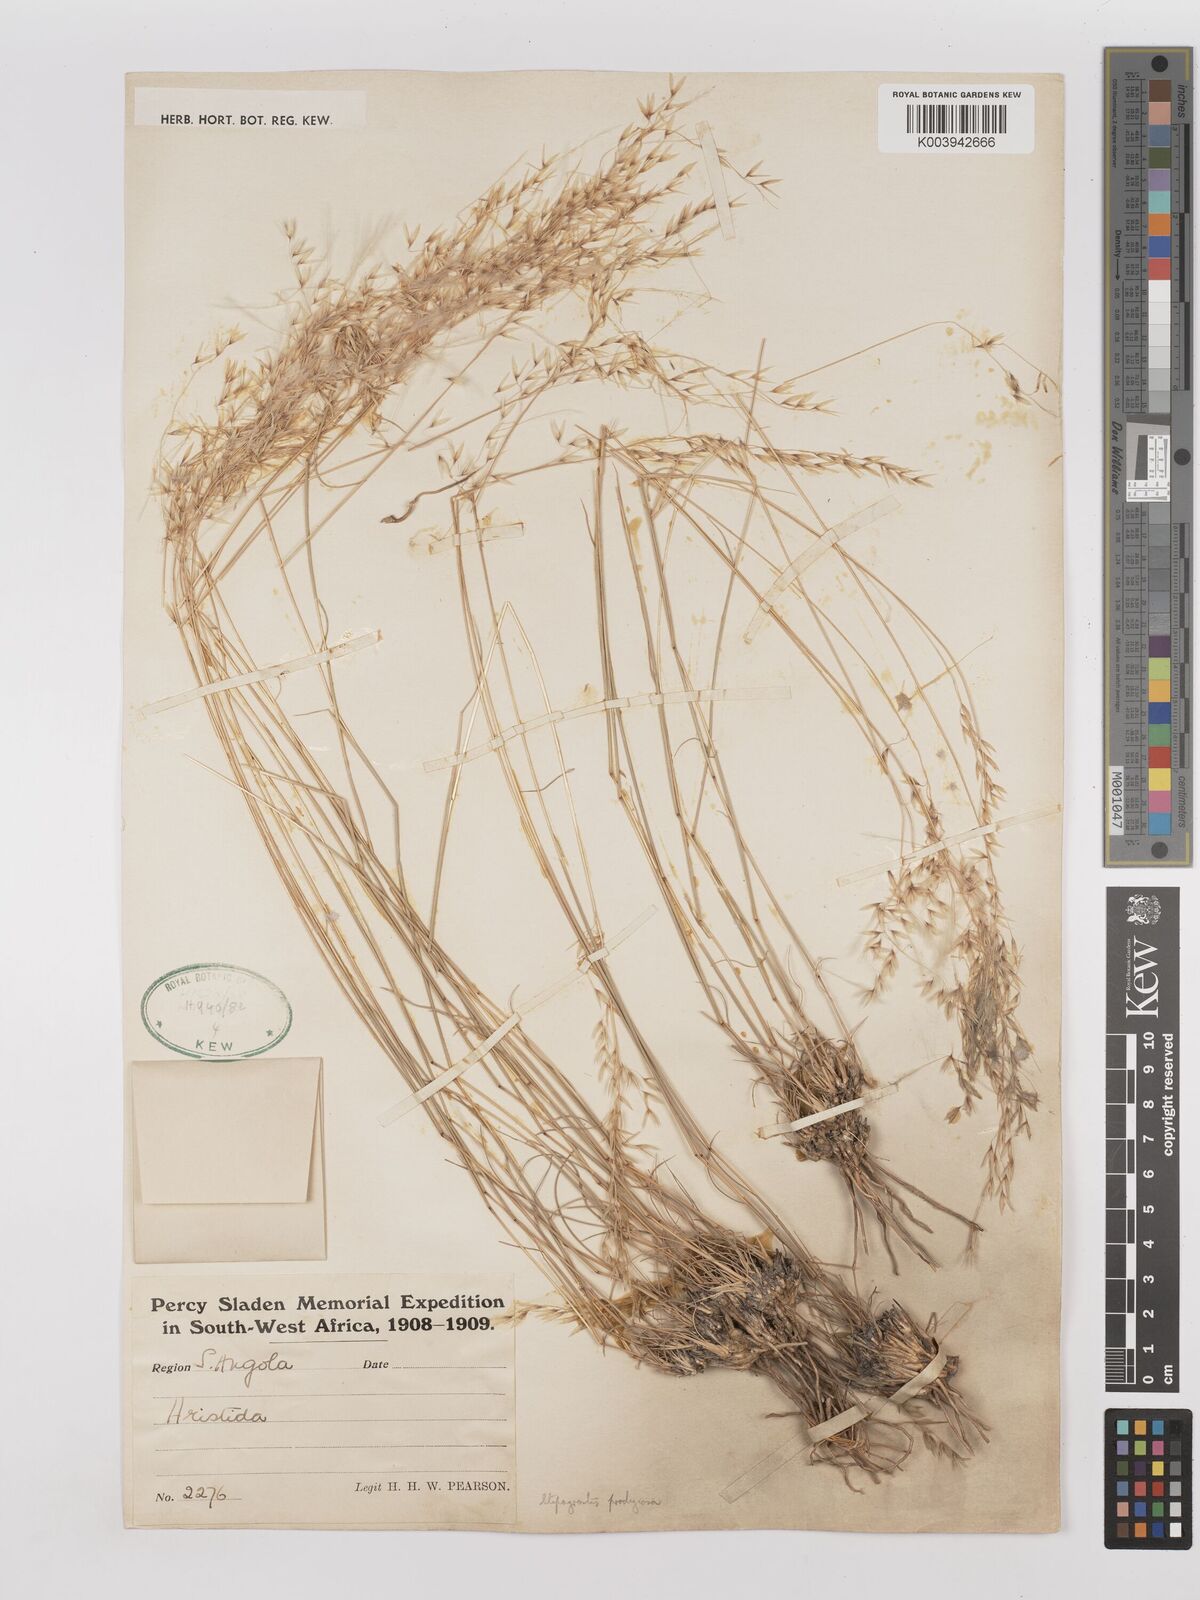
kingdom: Plantae
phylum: Tracheophyta
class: Liliopsida
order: Poales
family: Poaceae
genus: Stipagrostis
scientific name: Stipagrostis
